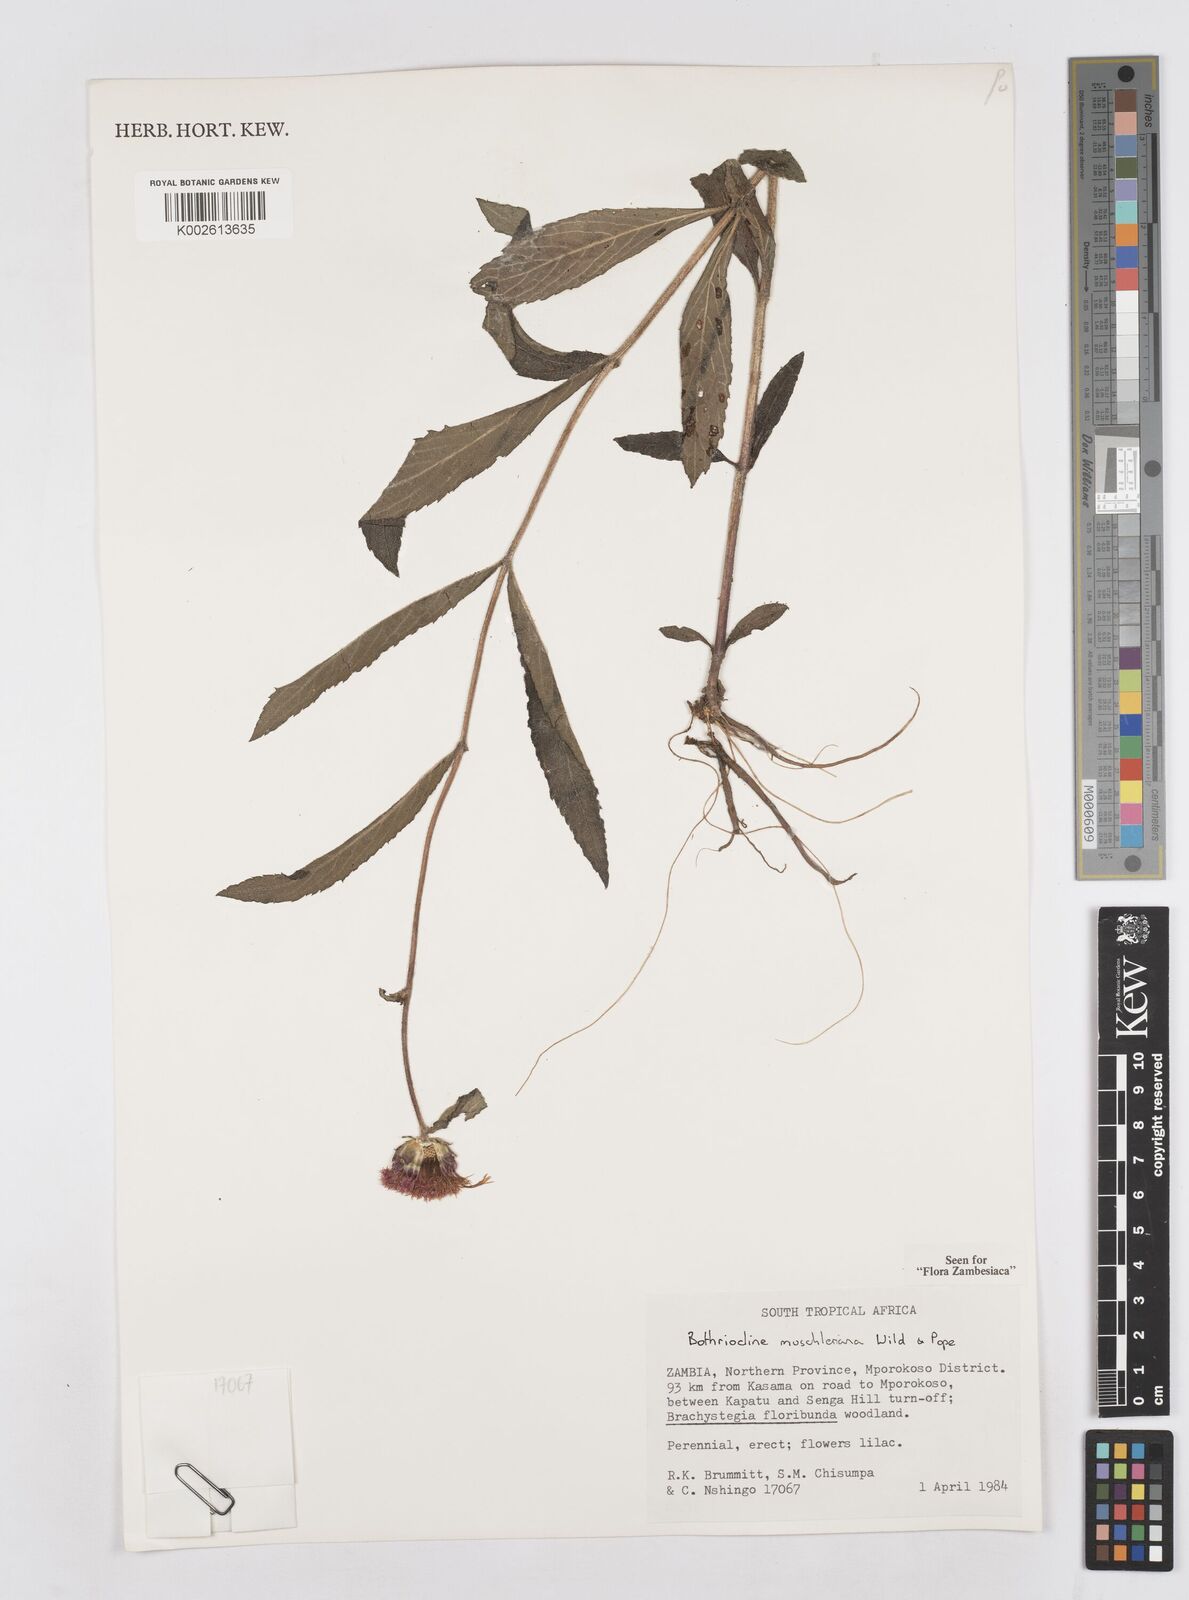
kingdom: Plantae
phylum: Tracheophyta
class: Magnoliopsida
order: Asterales
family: Asteraceae
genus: Bothriocline
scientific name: Bothriocline muschleriana
